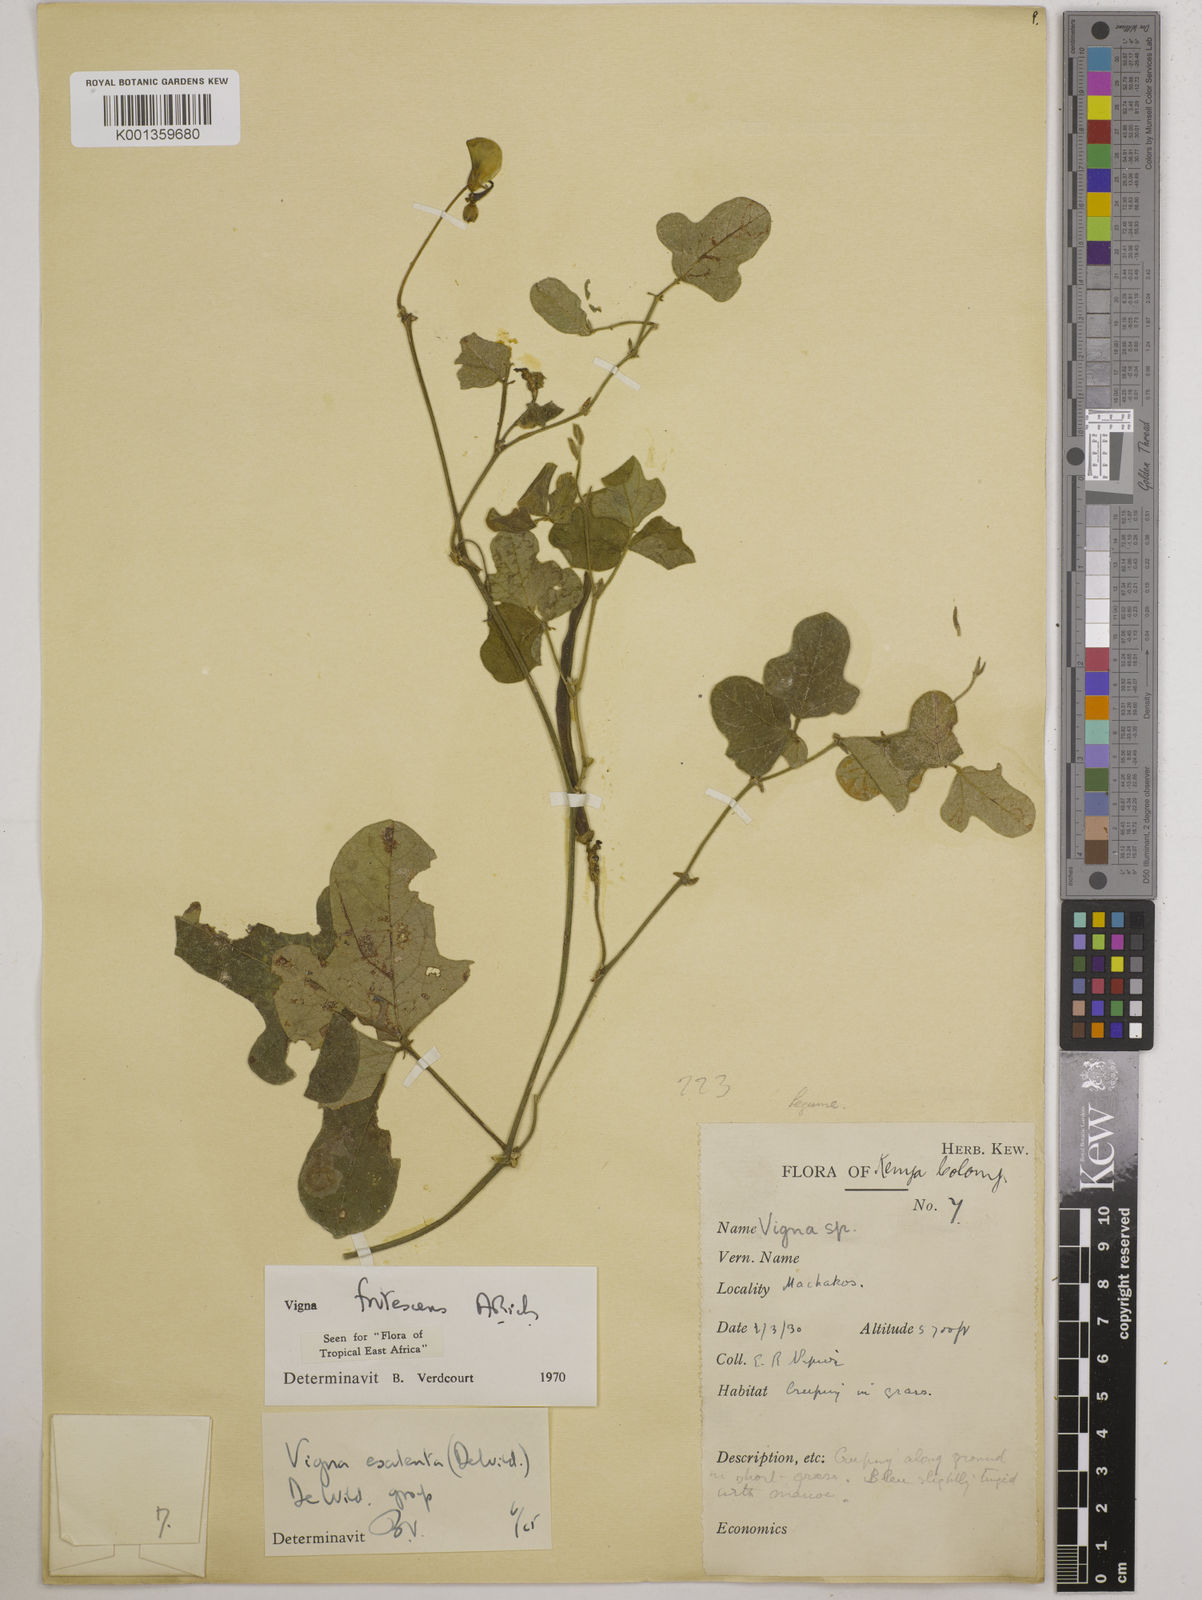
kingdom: Plantae
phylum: Tracheophyta
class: Magnoliopsida
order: Fabales
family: Fabaceae
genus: Vigna
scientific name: Vigna frutescens
